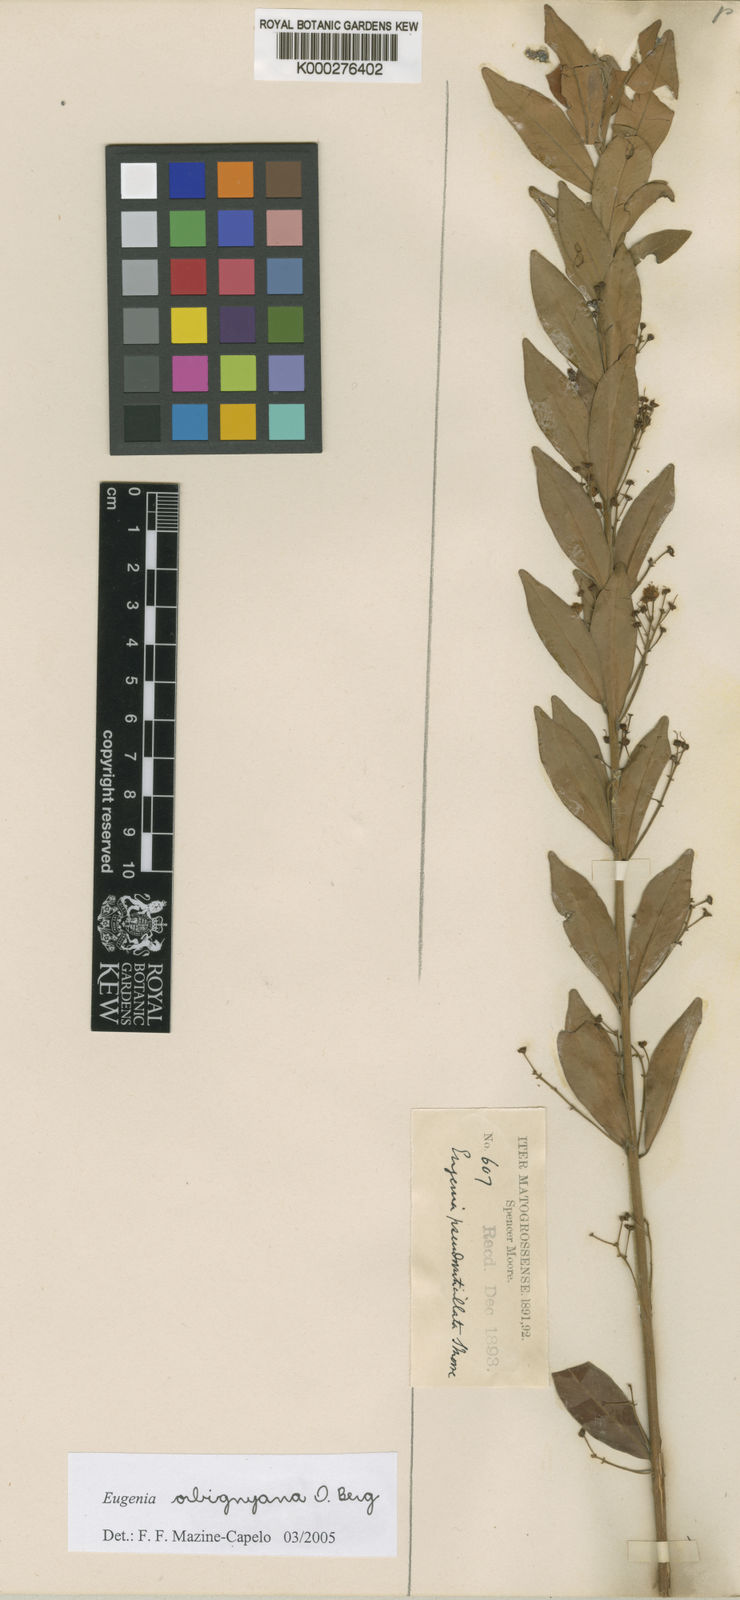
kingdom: Plantae
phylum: Tracheophyta
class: Magnoliopsida
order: Myrtales
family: Myrtaceae
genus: Eugenia
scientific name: Eugenia orbignyana
